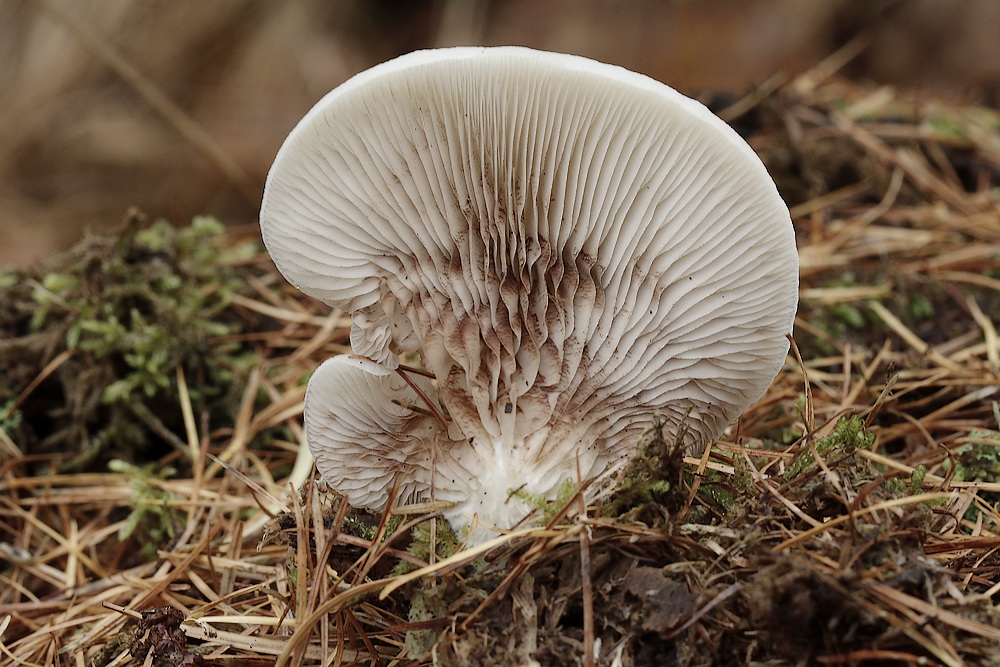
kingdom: Fungi
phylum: Basidiomycota
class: Agaricomycetes
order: Agaricales
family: Crepidotaceae
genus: Crepidotus
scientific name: Crepidotus
